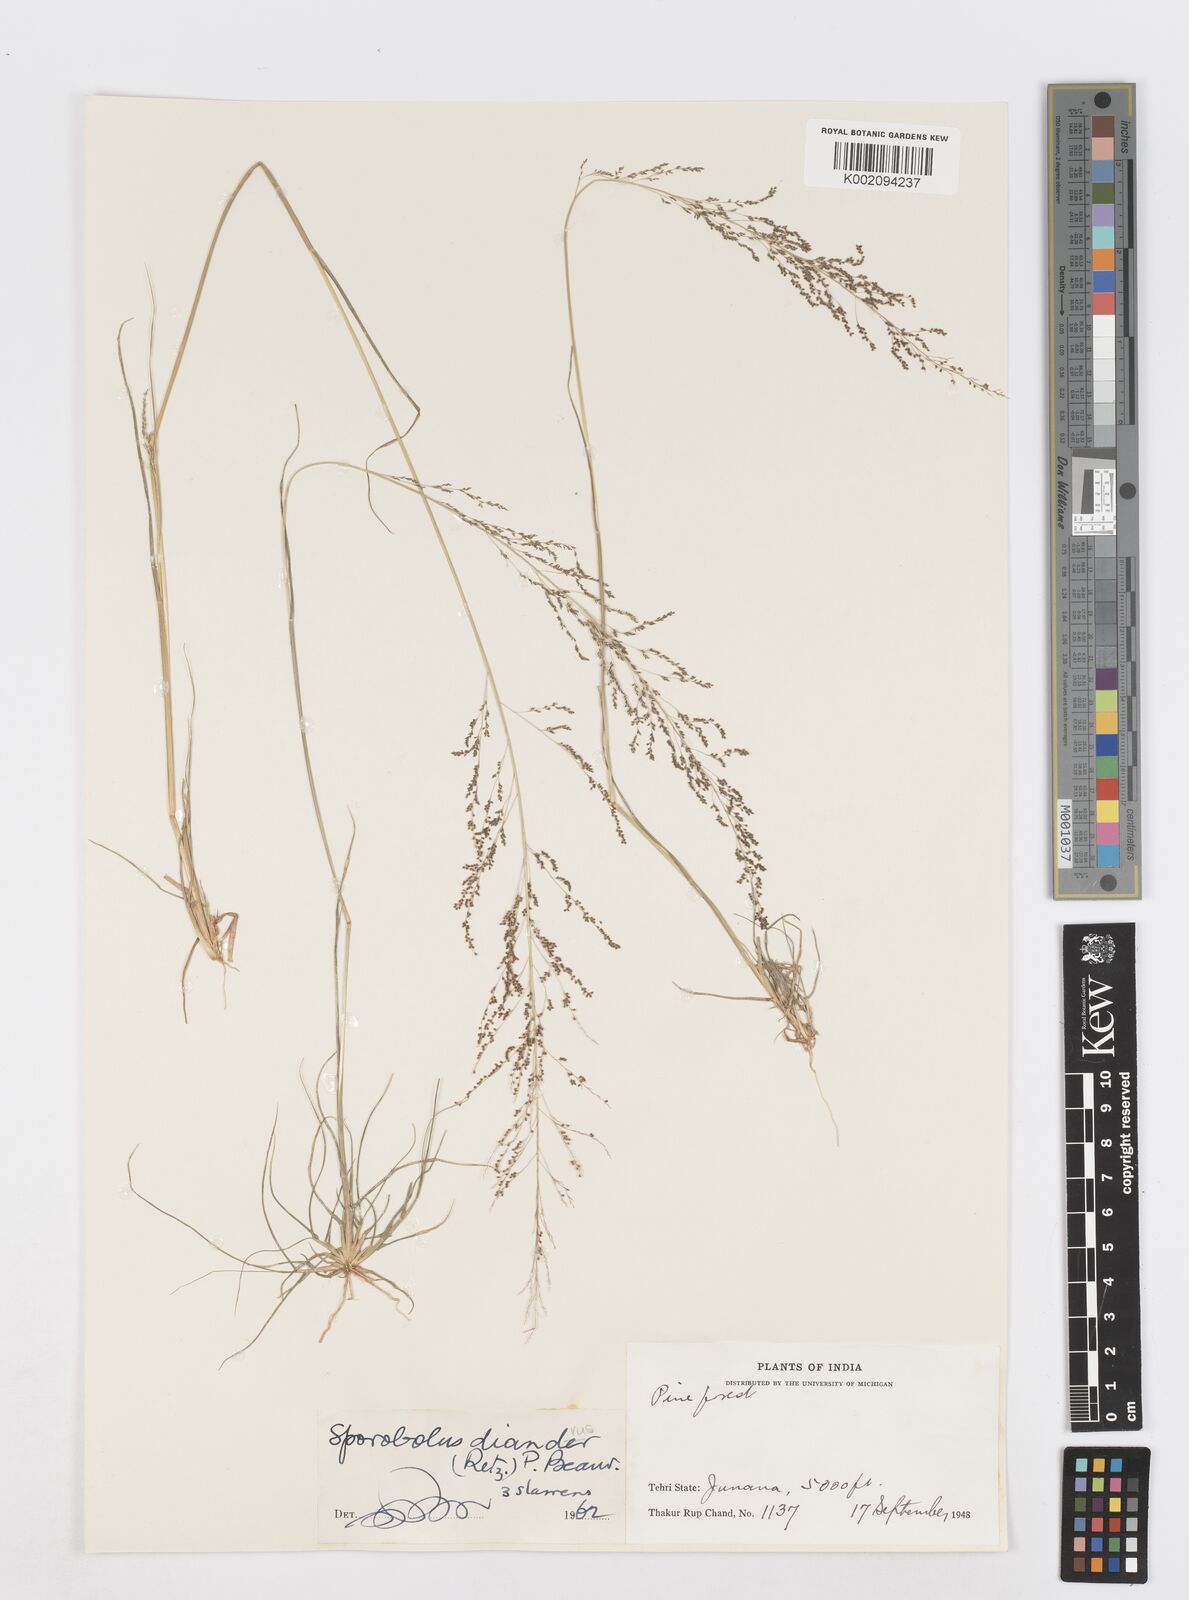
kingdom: Plantae
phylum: Tracheophyta
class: Liliopsida
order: Poales
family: Poaceae
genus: Sporobolus
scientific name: Sporobolus diandrus
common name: Tussock dropseed
